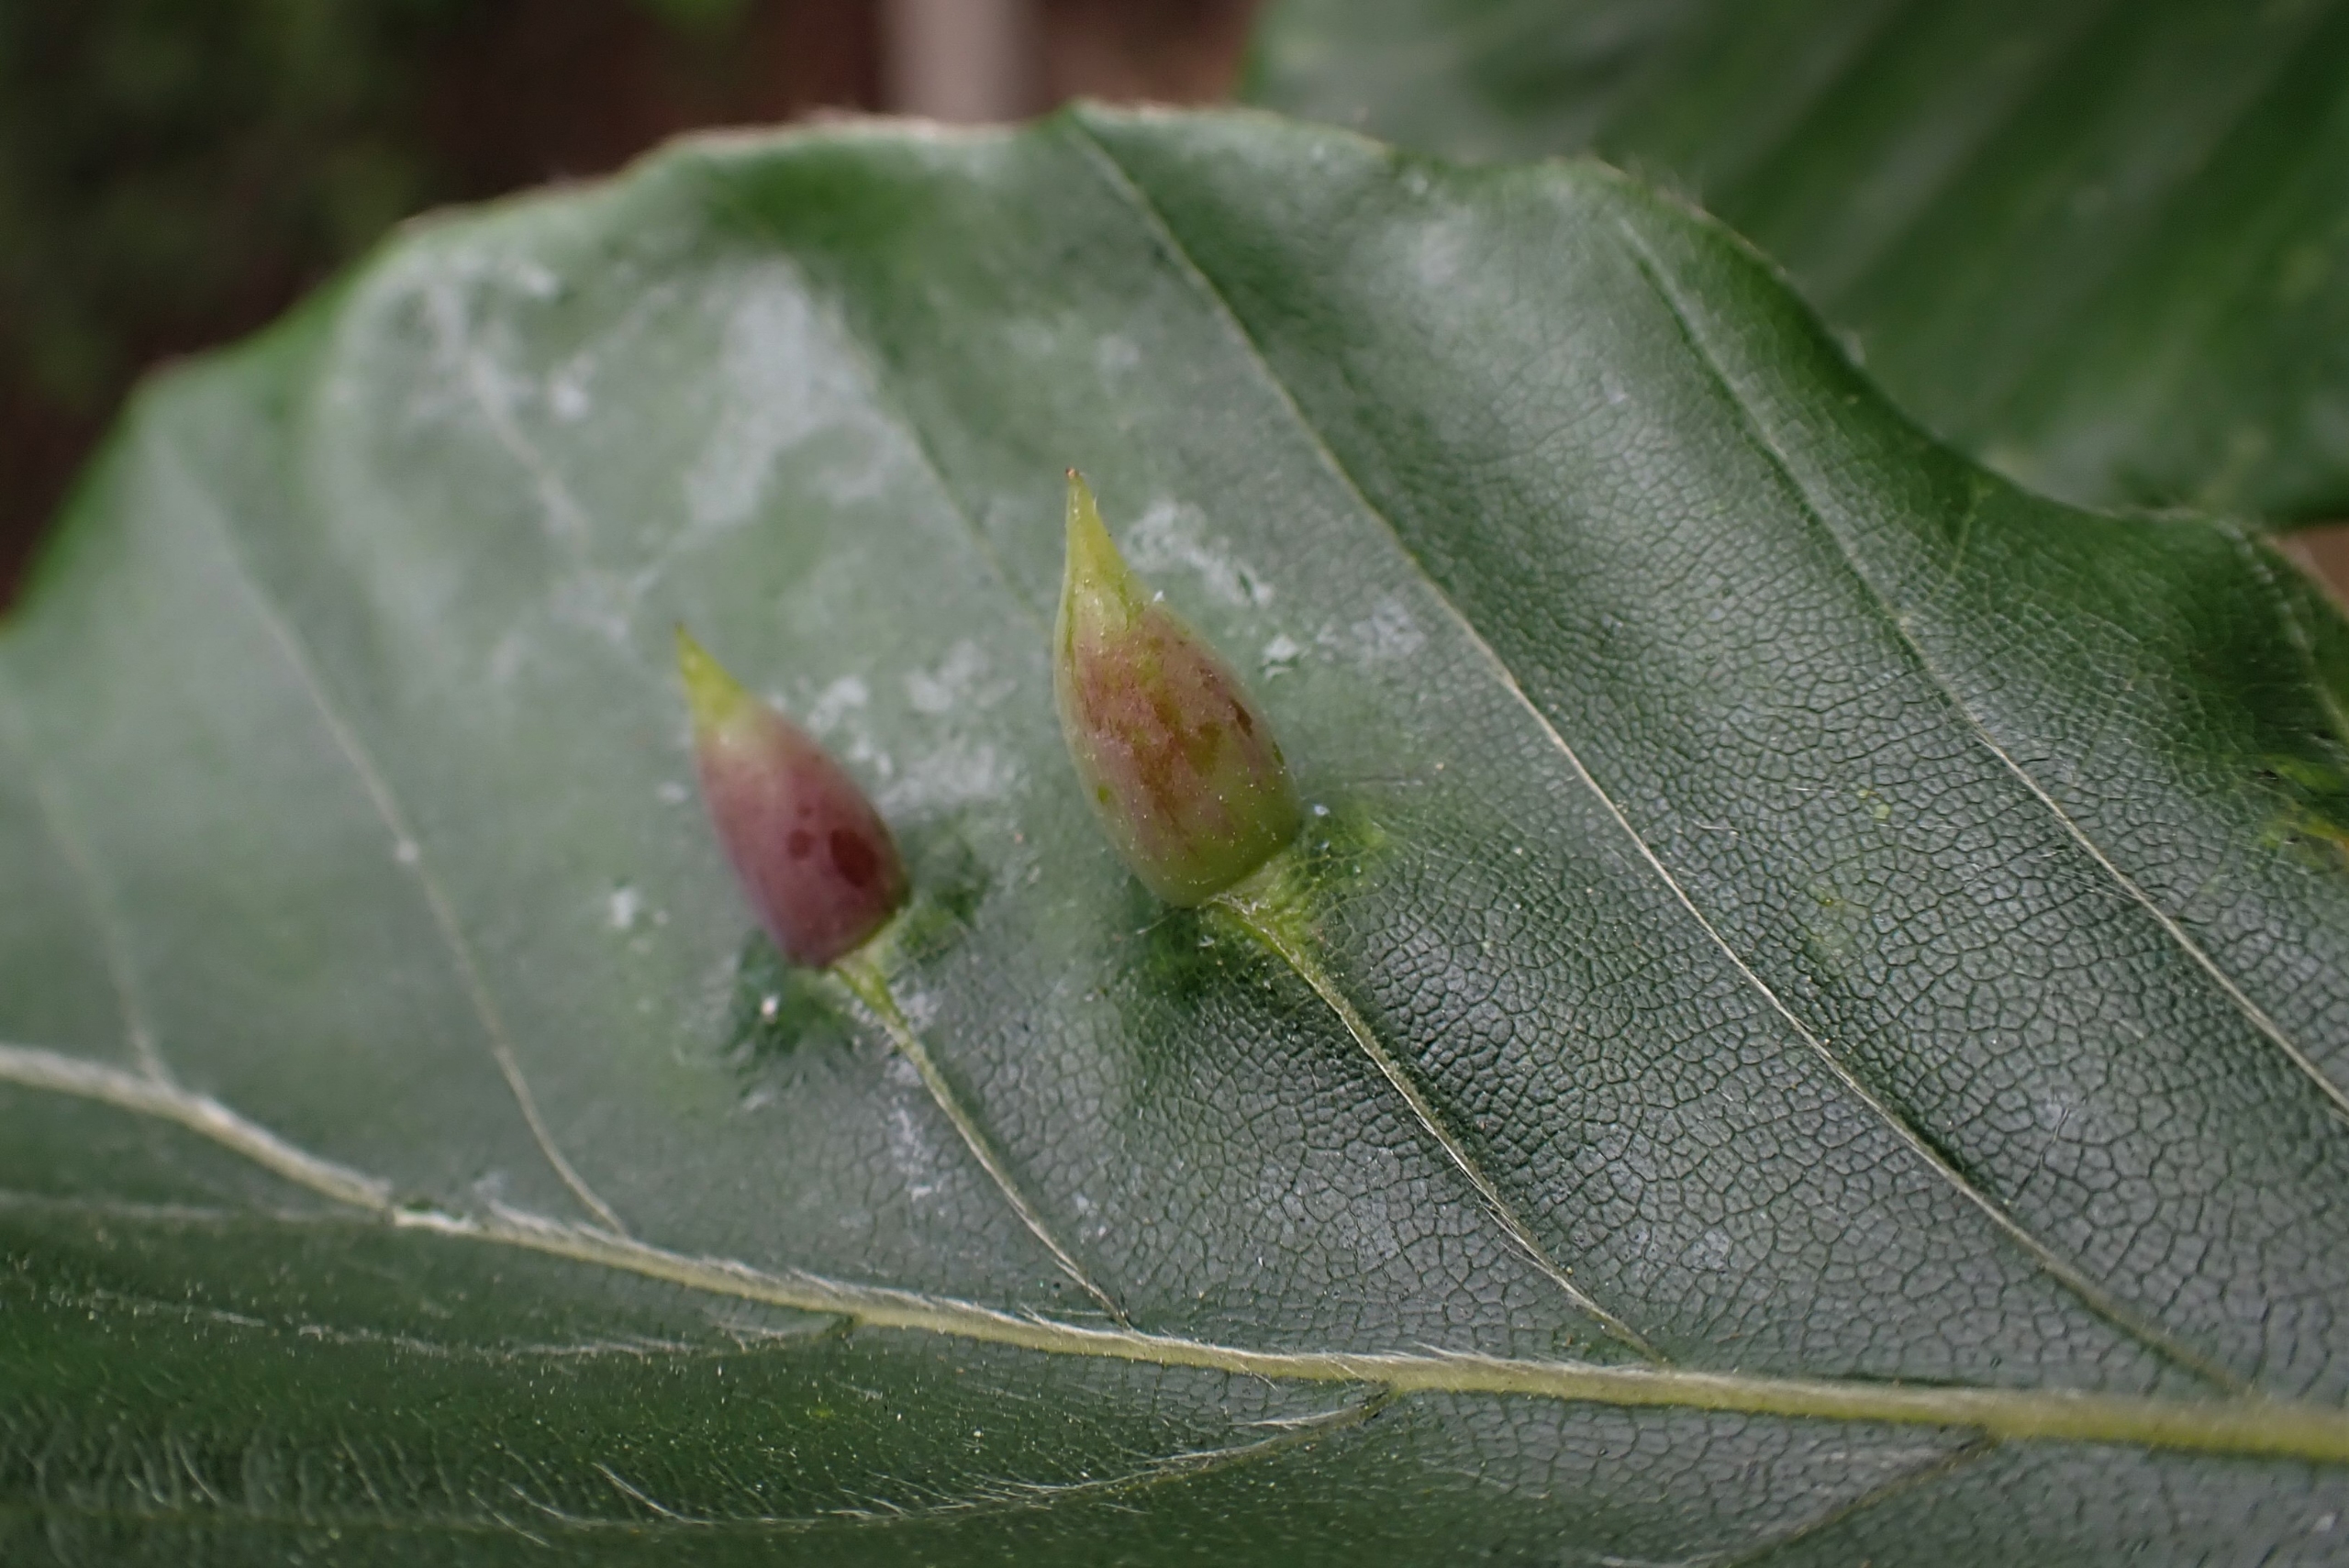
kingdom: Animalia
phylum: Arthropoda
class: Insecta
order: Diptera
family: Cecidomyiidae
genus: Mikiola
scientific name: Mikiola fagi
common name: Bøgegalmyg
